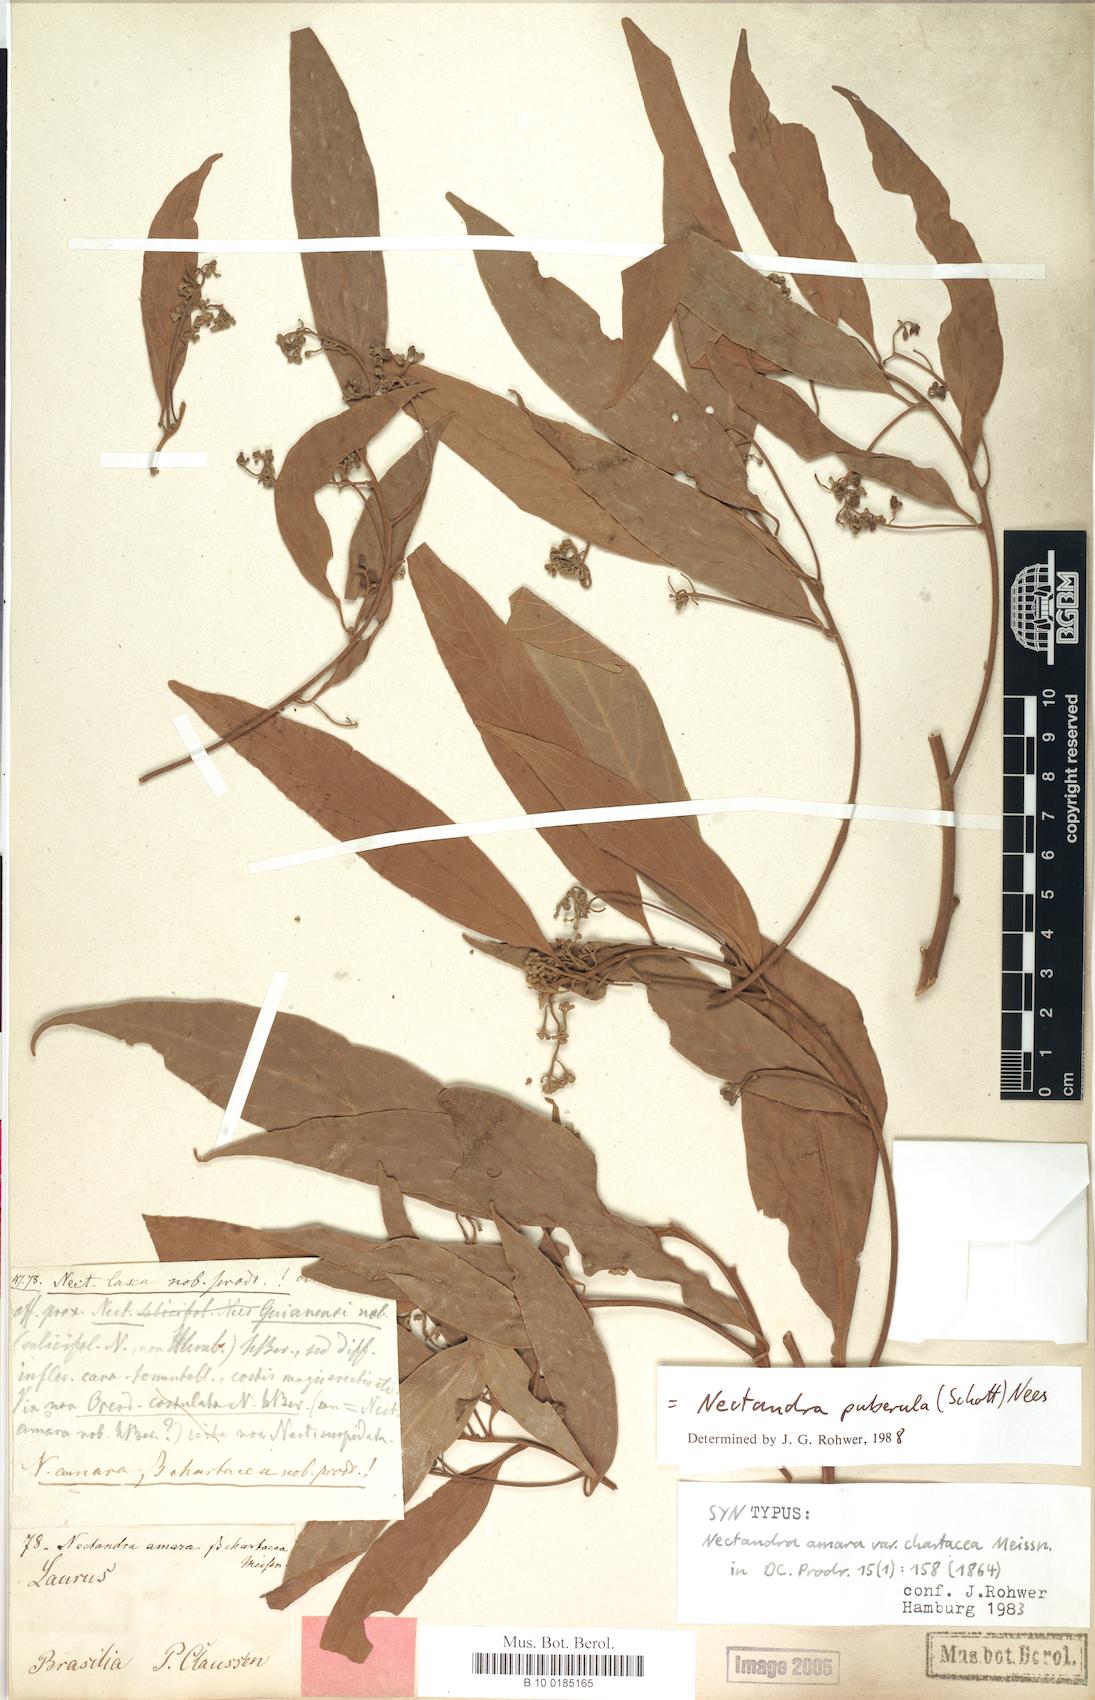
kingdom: Plantae
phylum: Tracheophyta
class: Magnoliopsida
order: Laurales
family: Lauraceae
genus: Nectandra
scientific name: Nectandra puberula
